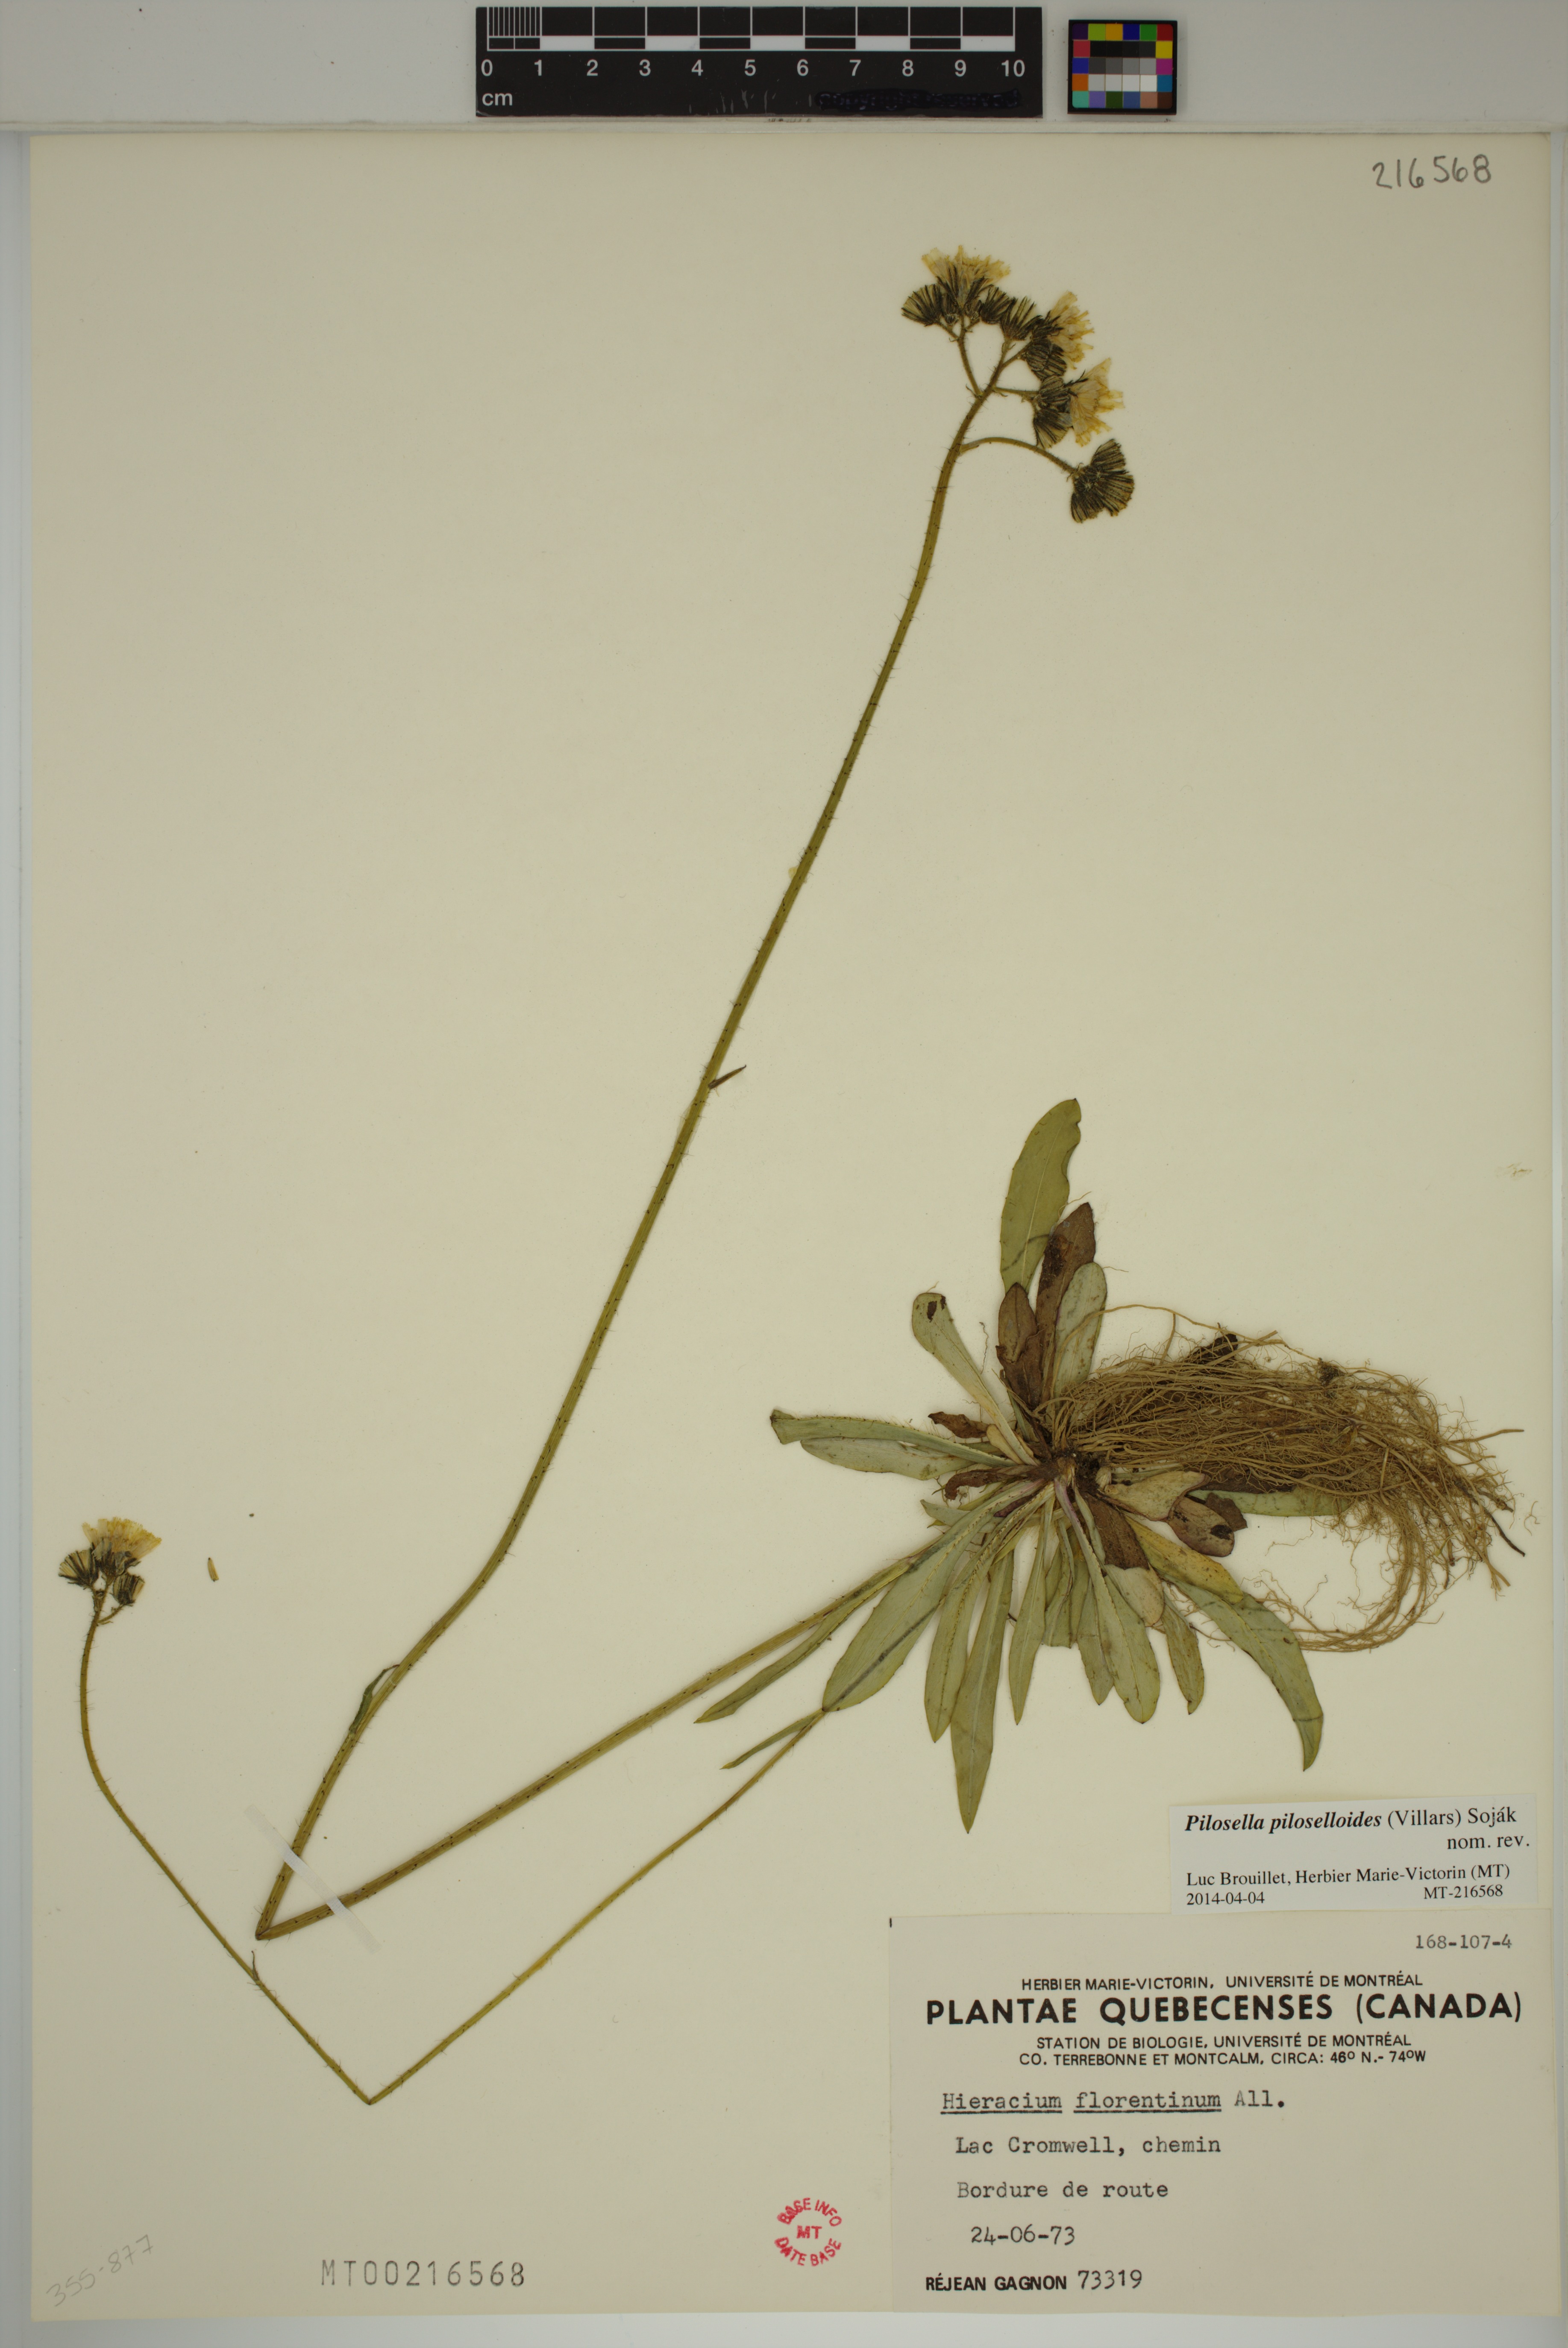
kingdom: Plantae
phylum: Tracheophyta
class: Magnoliopsida
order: Asterales
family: Asteraceae
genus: Pilosella
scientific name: Pilosella piloselloides
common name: Glaucous king-devil
